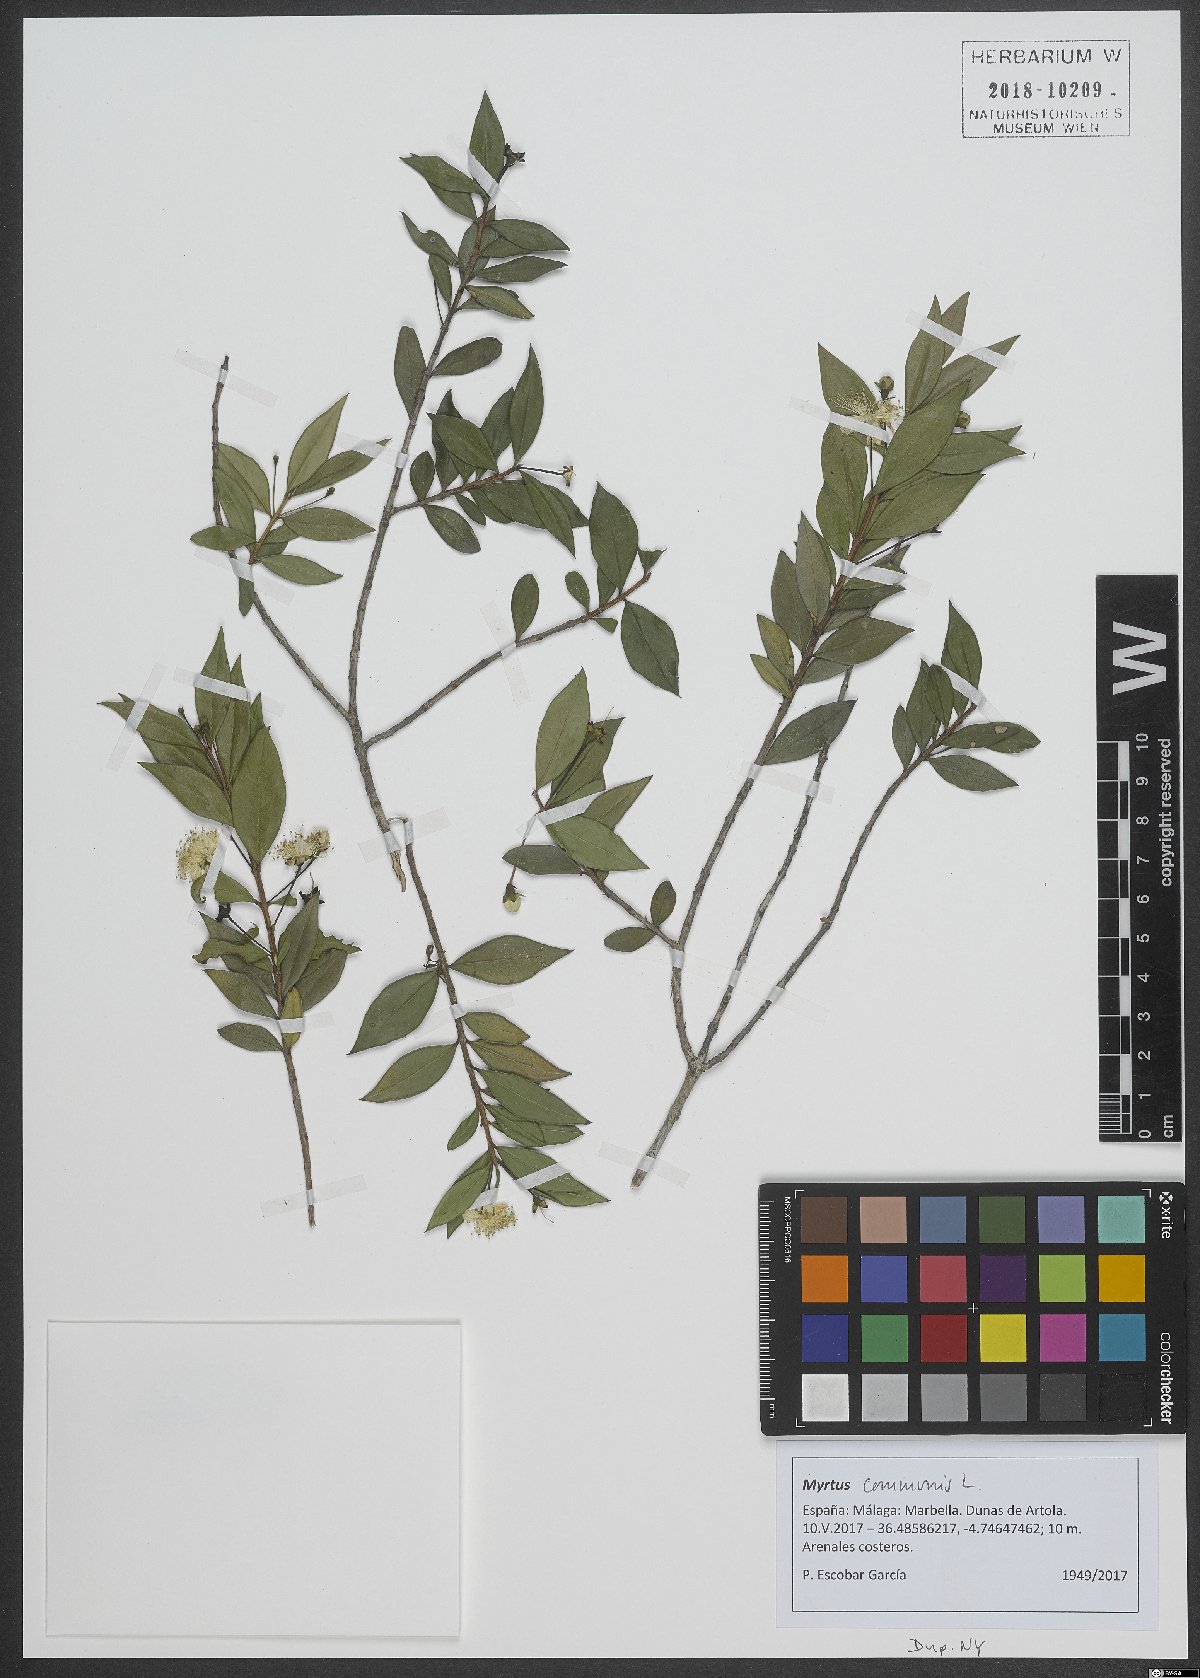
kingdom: Plantae
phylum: Tracheophyta
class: Magnoliopsida
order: Myrtales
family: Myrtaceae
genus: Myrtus
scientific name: Myrtus communis
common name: Myrtle
